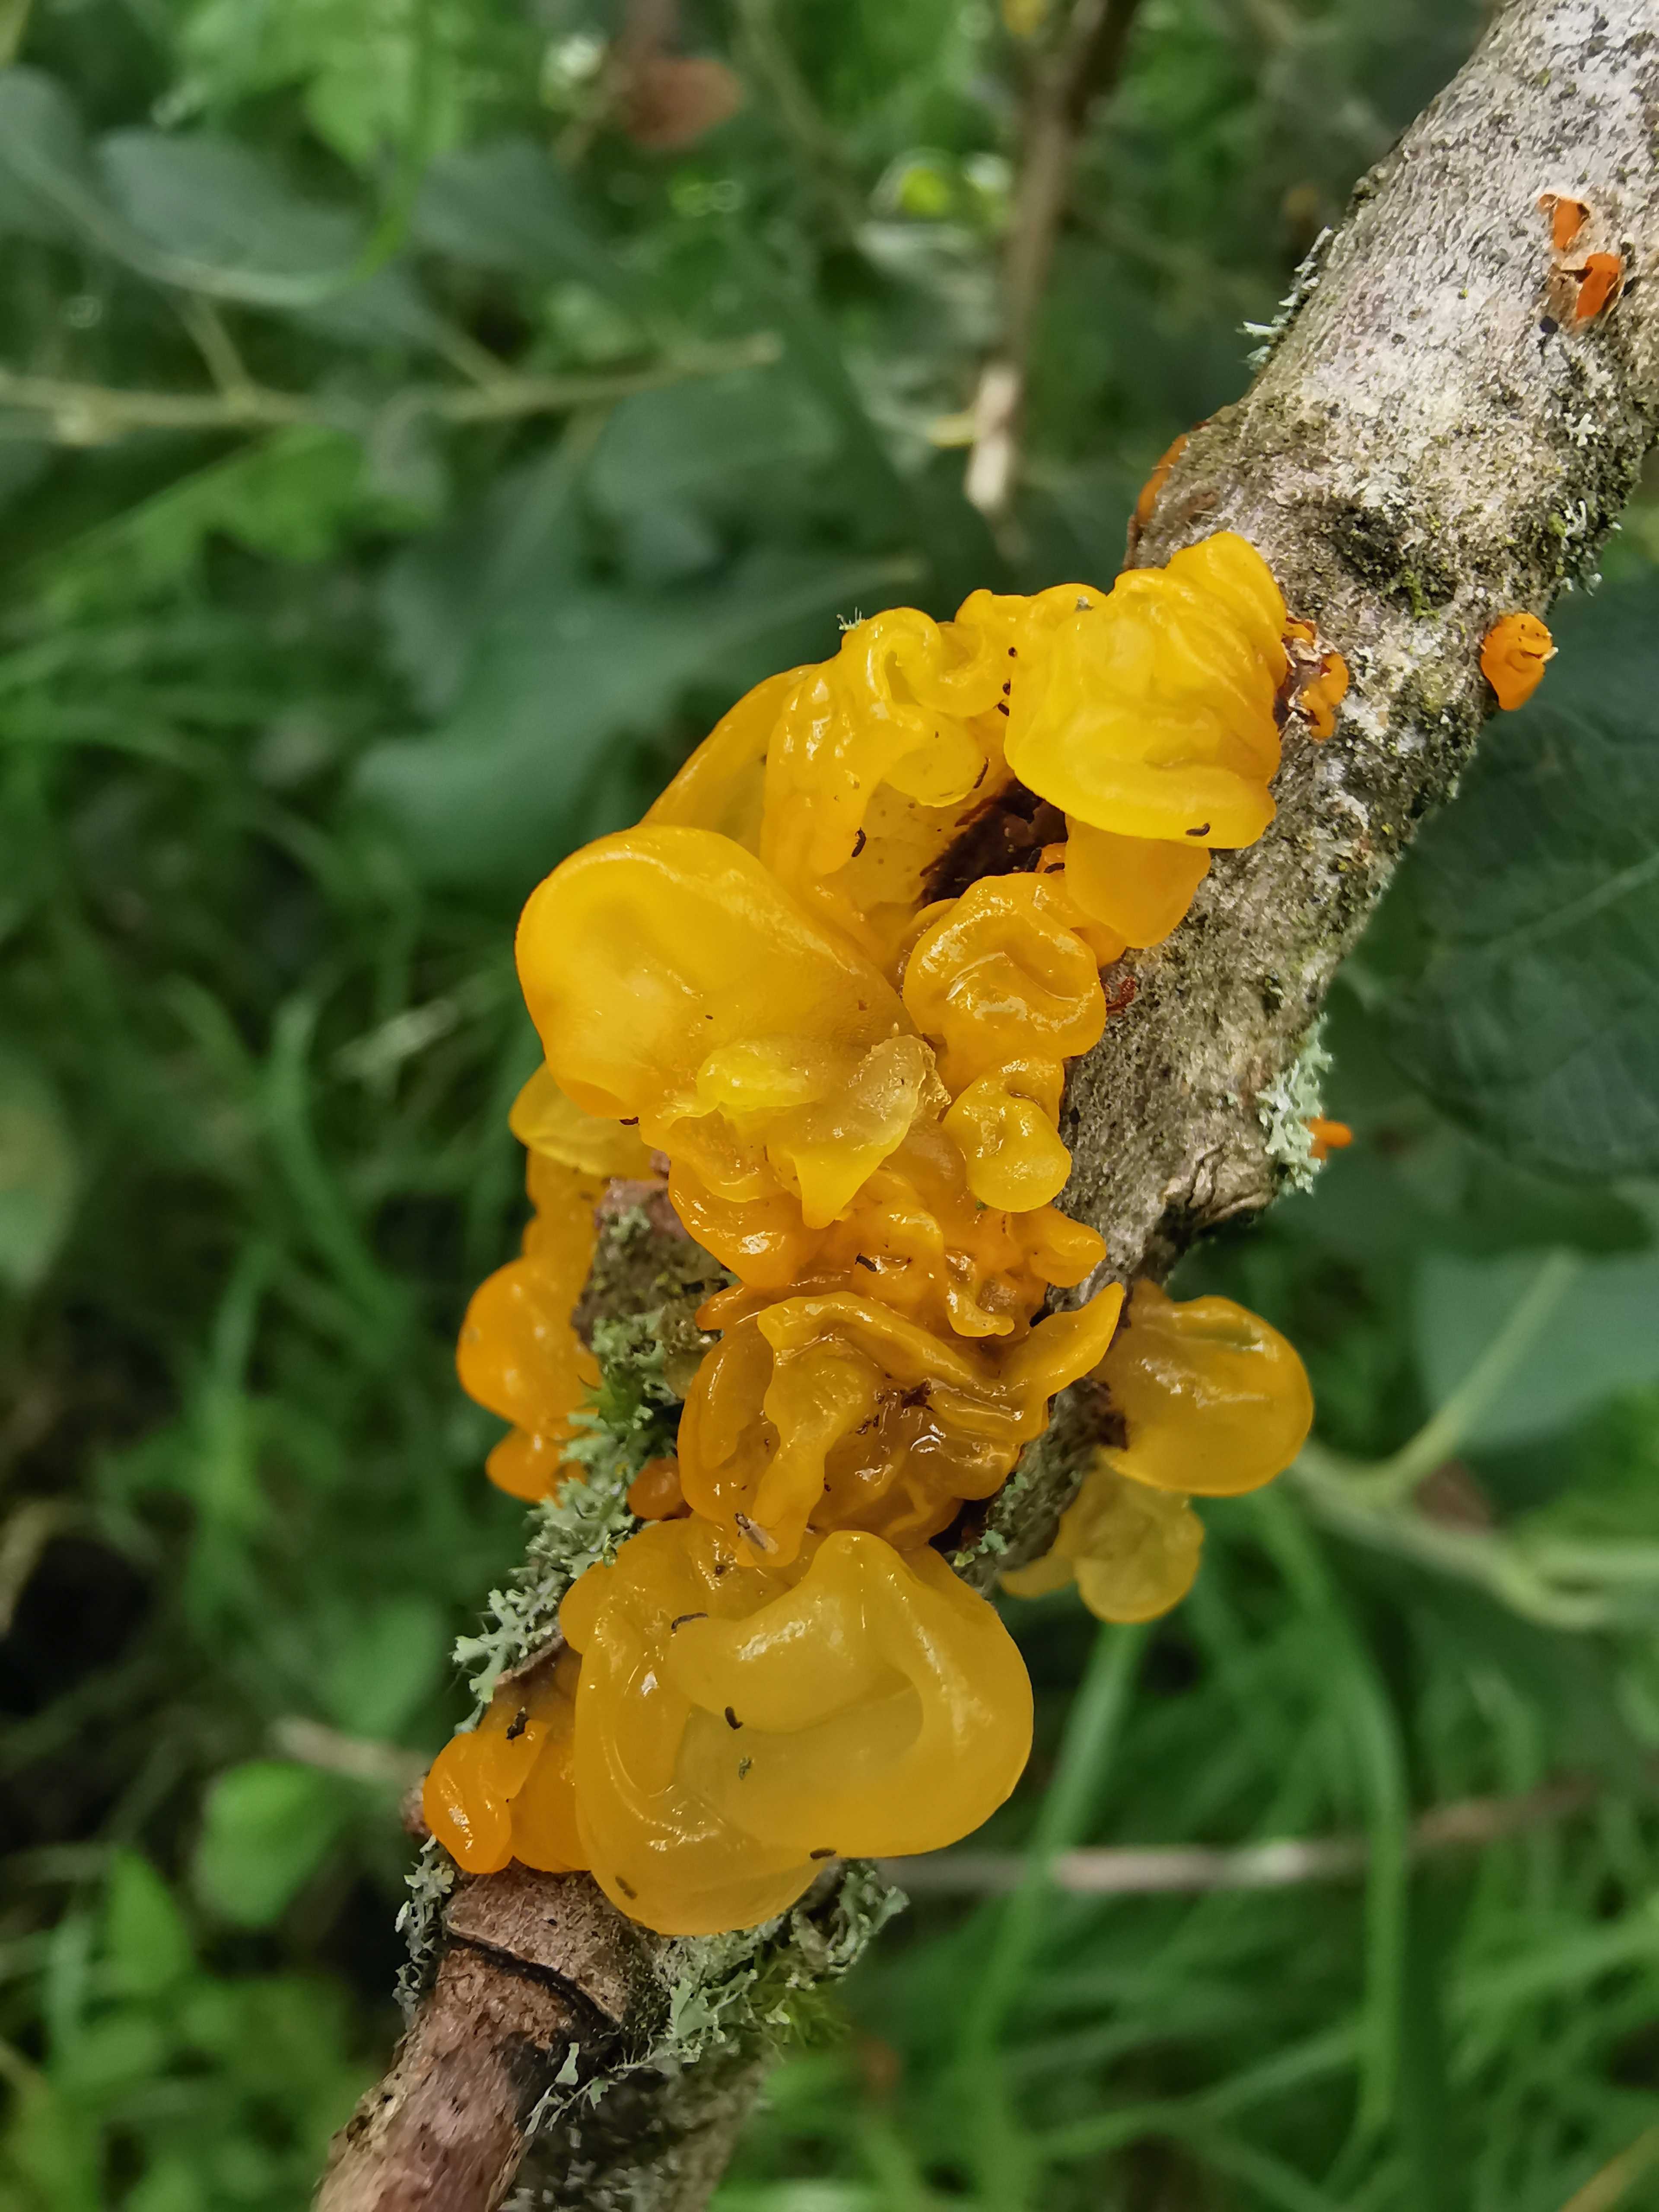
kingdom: Fungi
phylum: Basidiomycota
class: Tremellomycetes
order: Tremellales
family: Tremellaceae
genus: Tremella
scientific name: Tremella mesenterica
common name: gul bævresvamp
